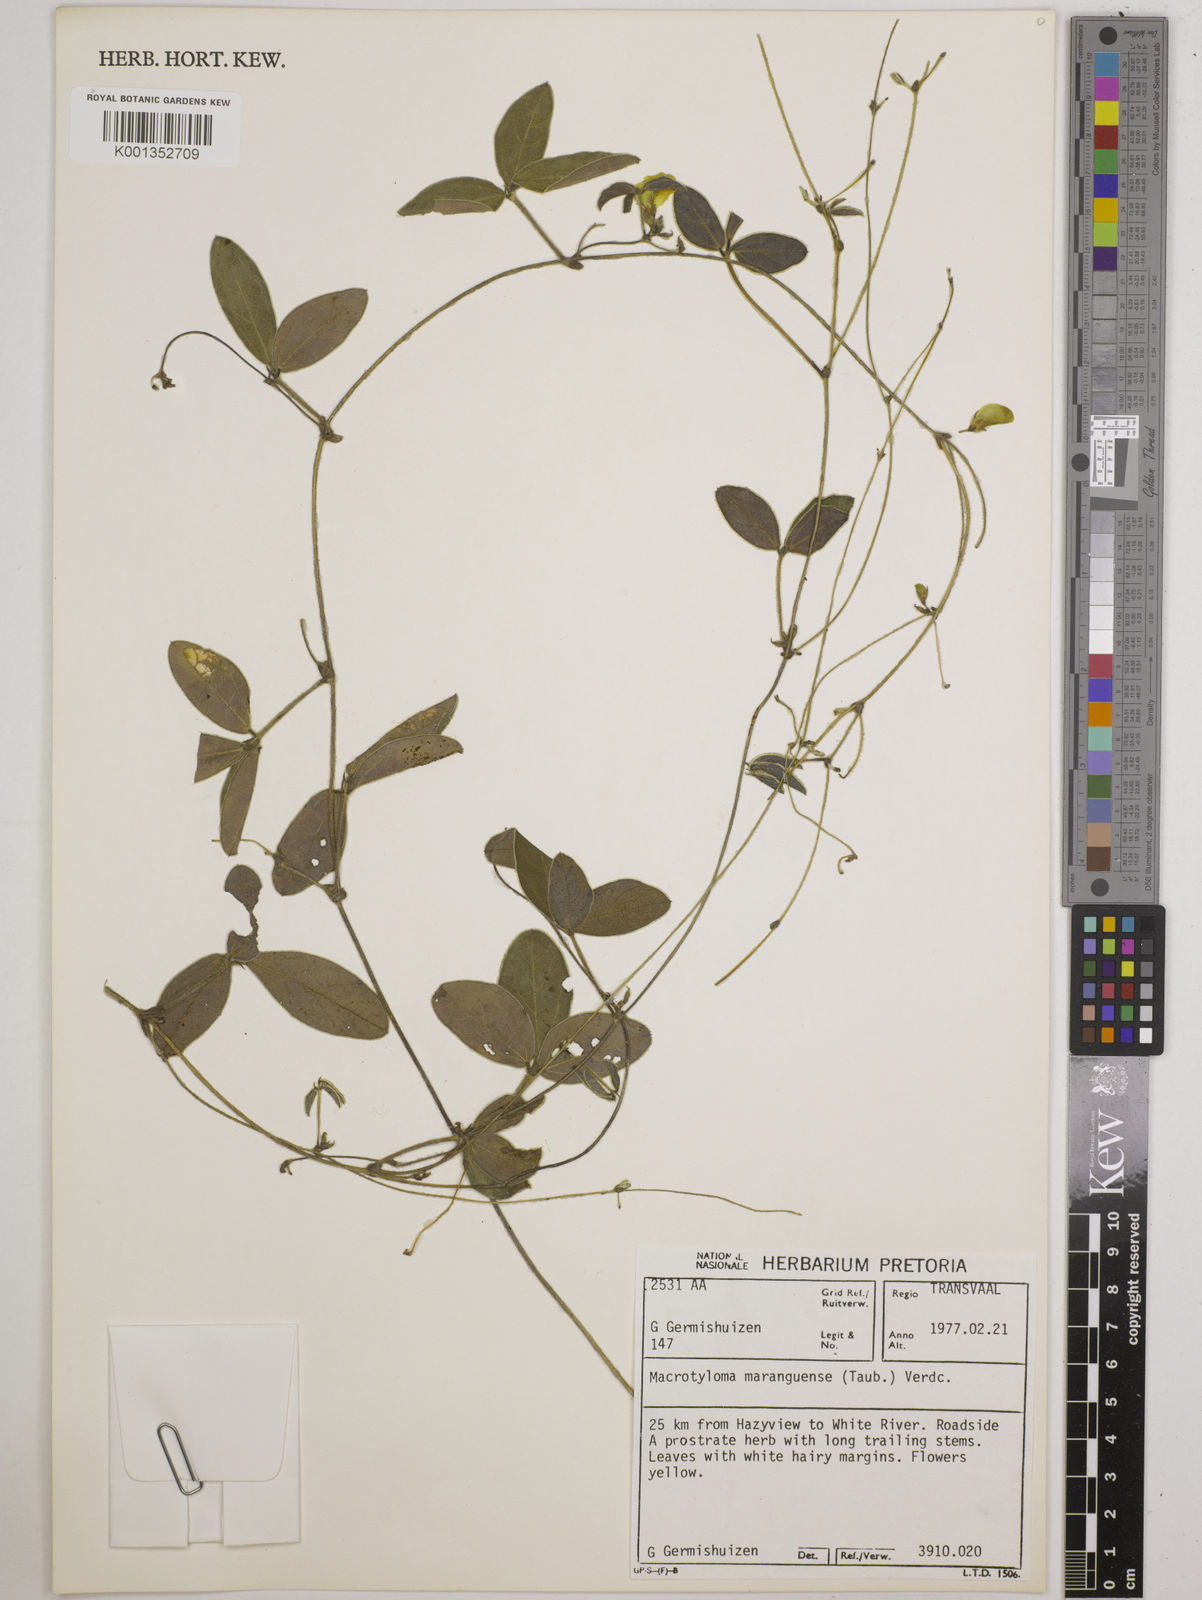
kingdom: Plantae
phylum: Tracheophyta
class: Magnoliopsida
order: Fabales
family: Fabaceae
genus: Macrotyloma
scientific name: Macrotyloma maranguense
